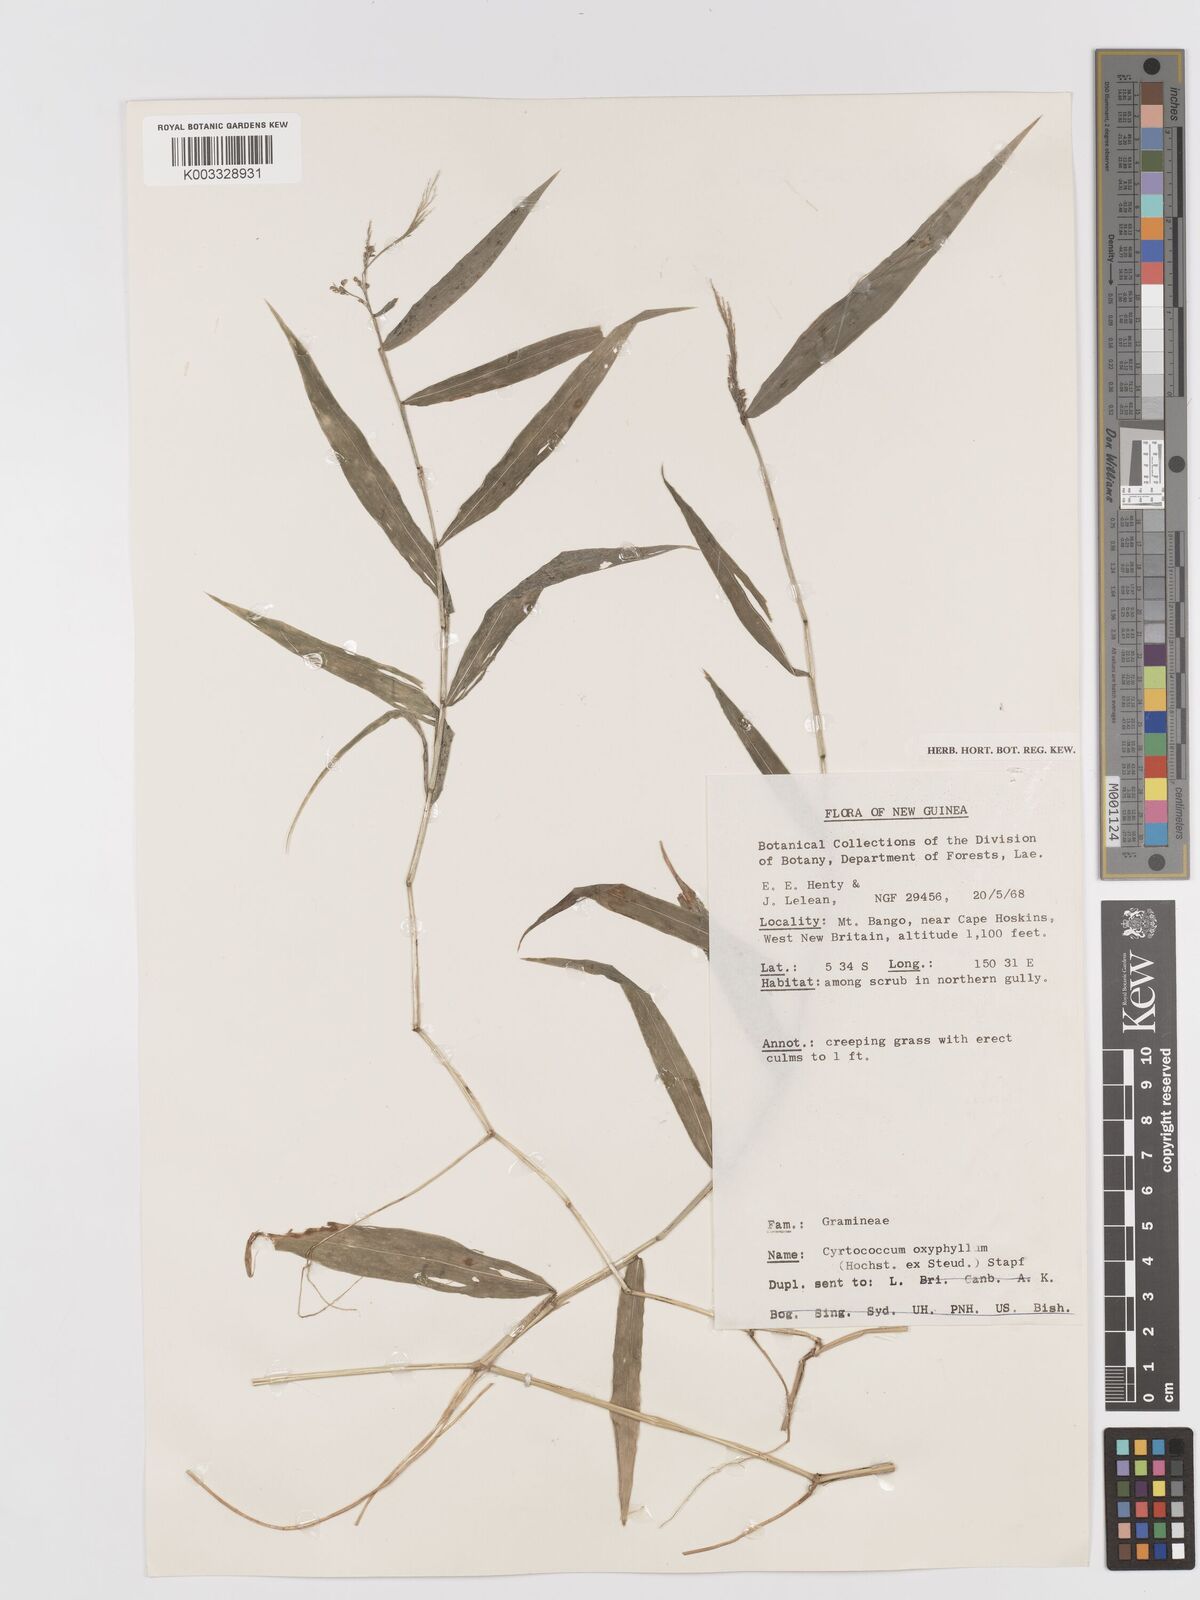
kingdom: Plantae
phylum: Tracheophyta
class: Liliopsida
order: Poales
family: Poaceae
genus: Cyrtococcum
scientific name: Cyrtococcum oxyphyllum
